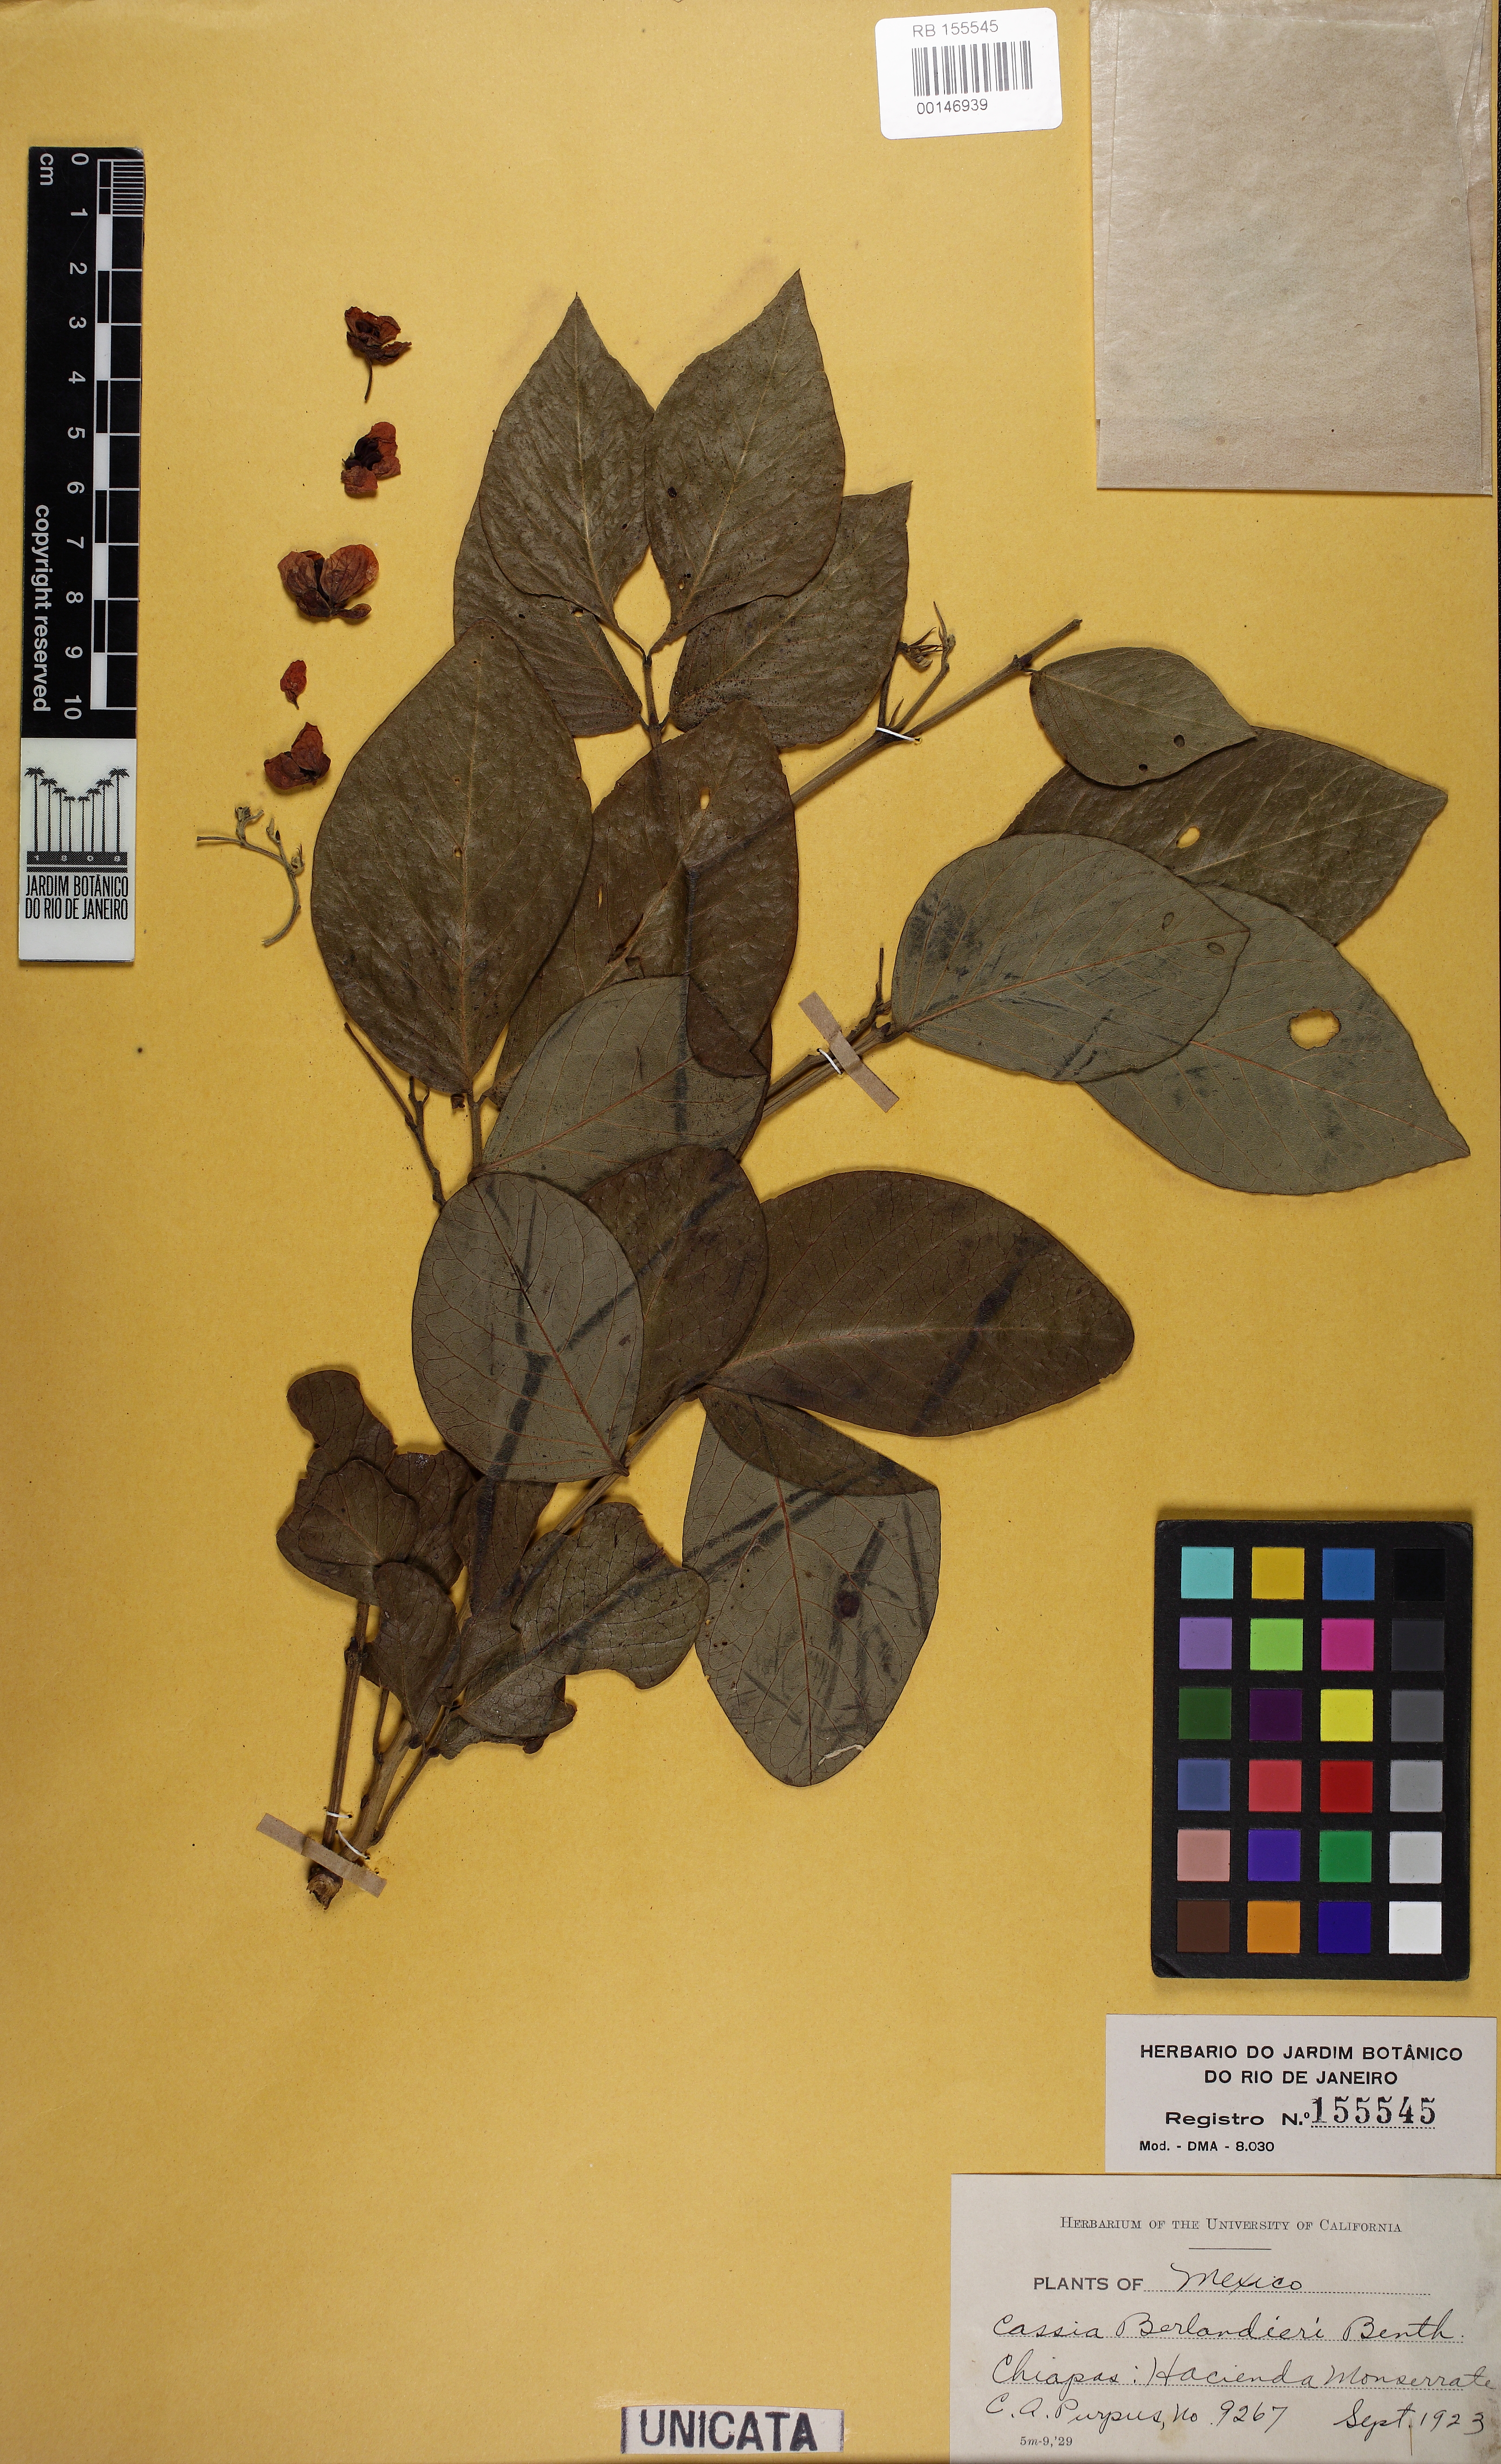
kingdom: Plantae
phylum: Tracheophyta
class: Magnoliopsida
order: Fabales
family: Fabaceae
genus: Senna
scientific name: Senna fruticosa
